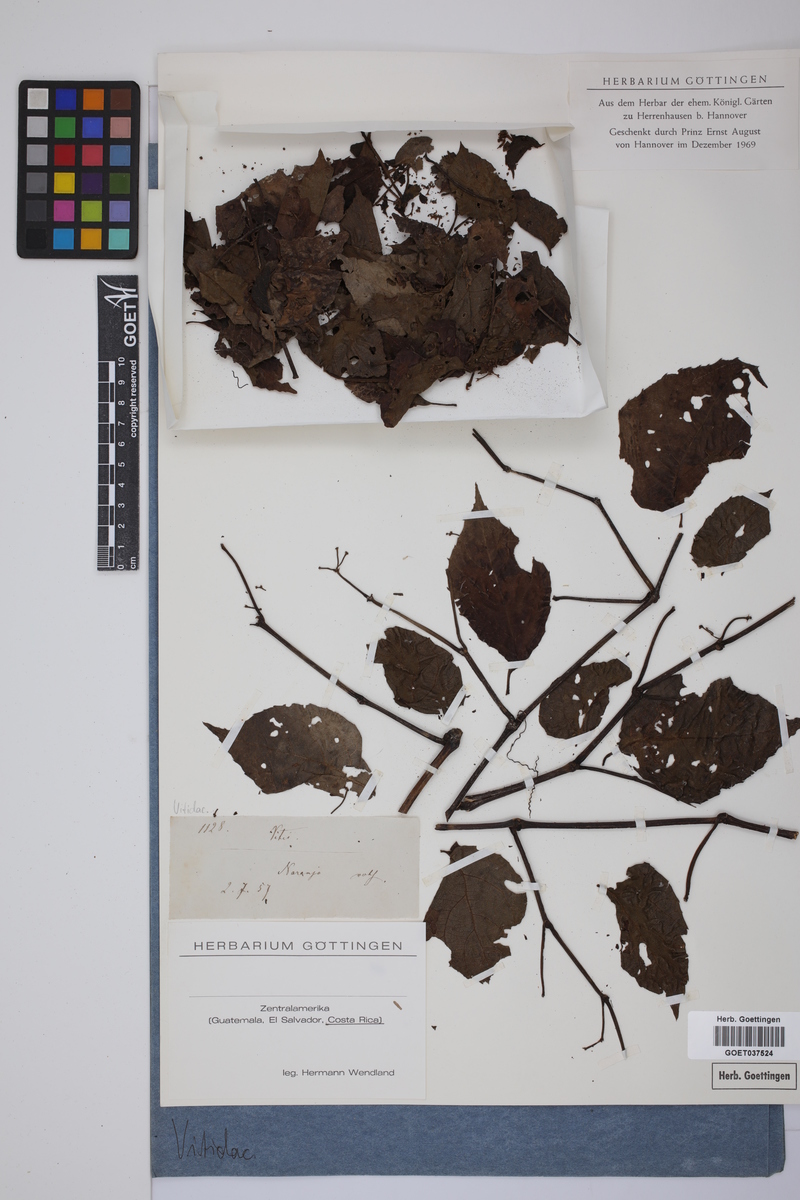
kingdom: Plantae
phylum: Tracheophyta
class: Magnoliopsida
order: Vitales
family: Vitaceae
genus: Vitis
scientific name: Vitis
